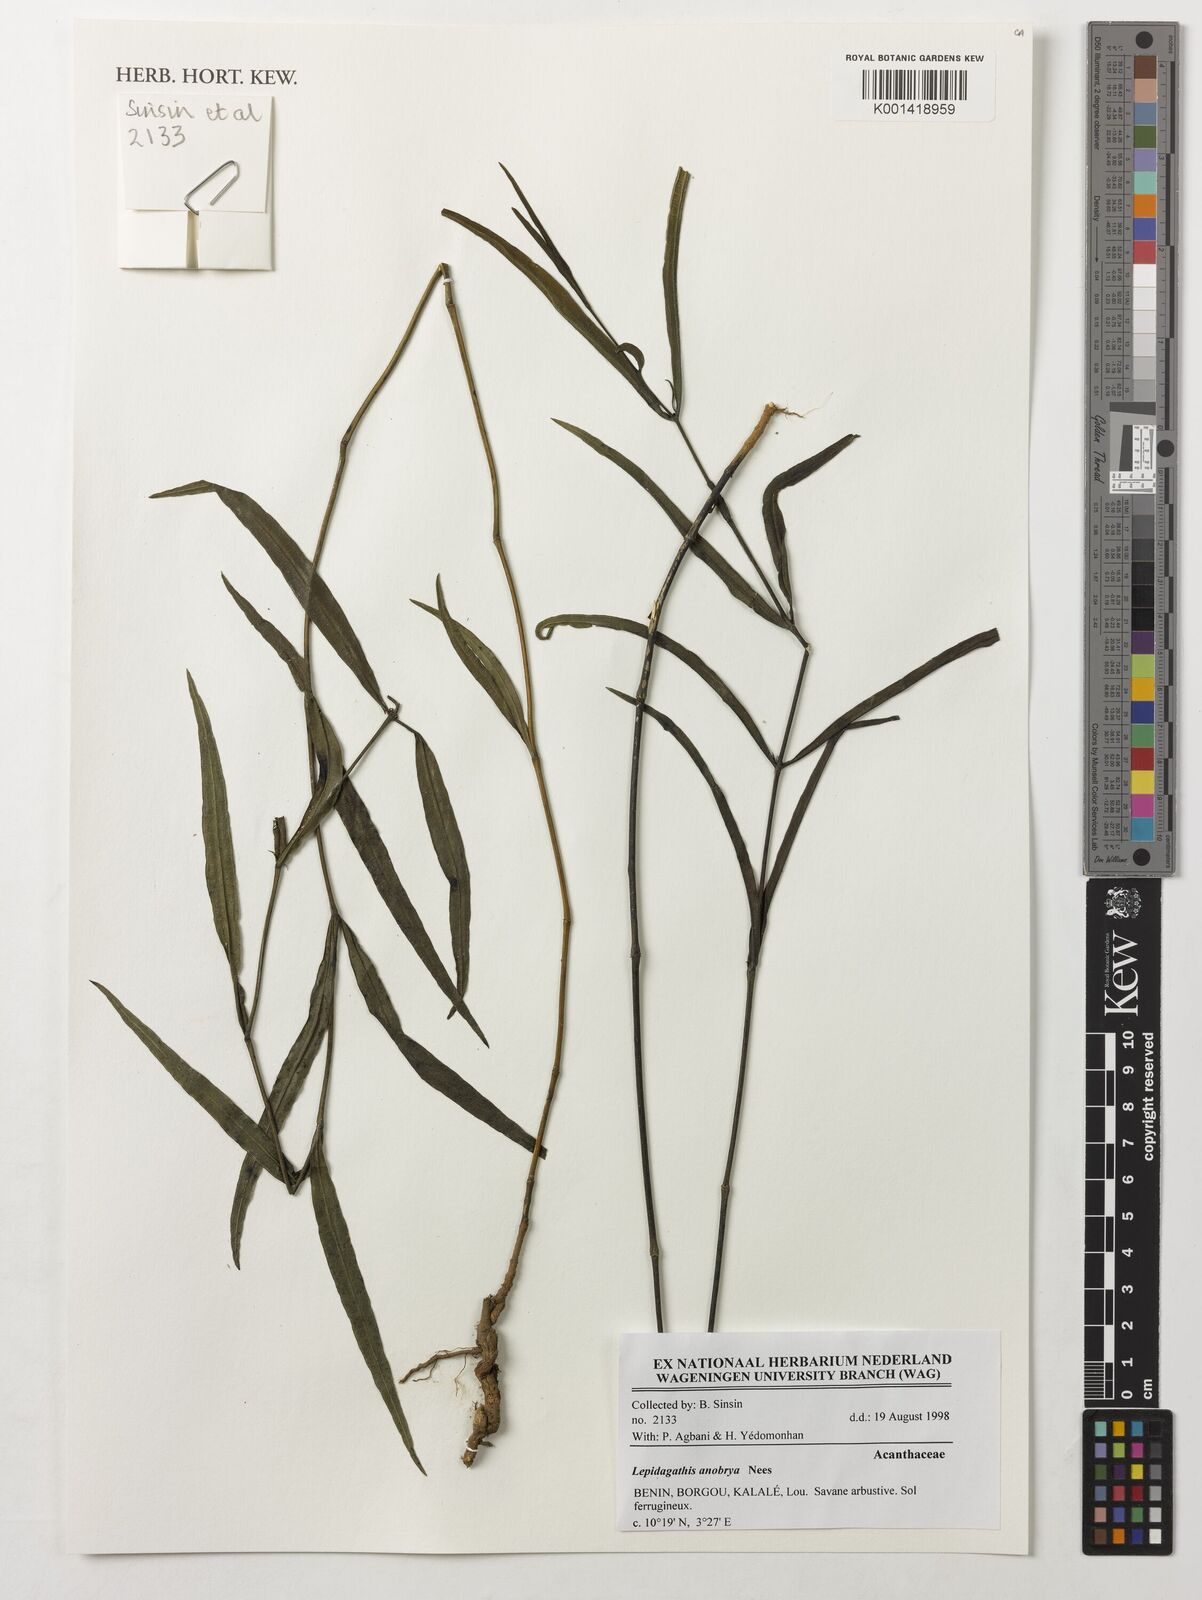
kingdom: Plantae
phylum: Tracheophyta
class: Magnoliopsida
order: Lamiales
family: Acanthaceae
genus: Lepidagathis
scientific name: Lepidagathis anobrya
